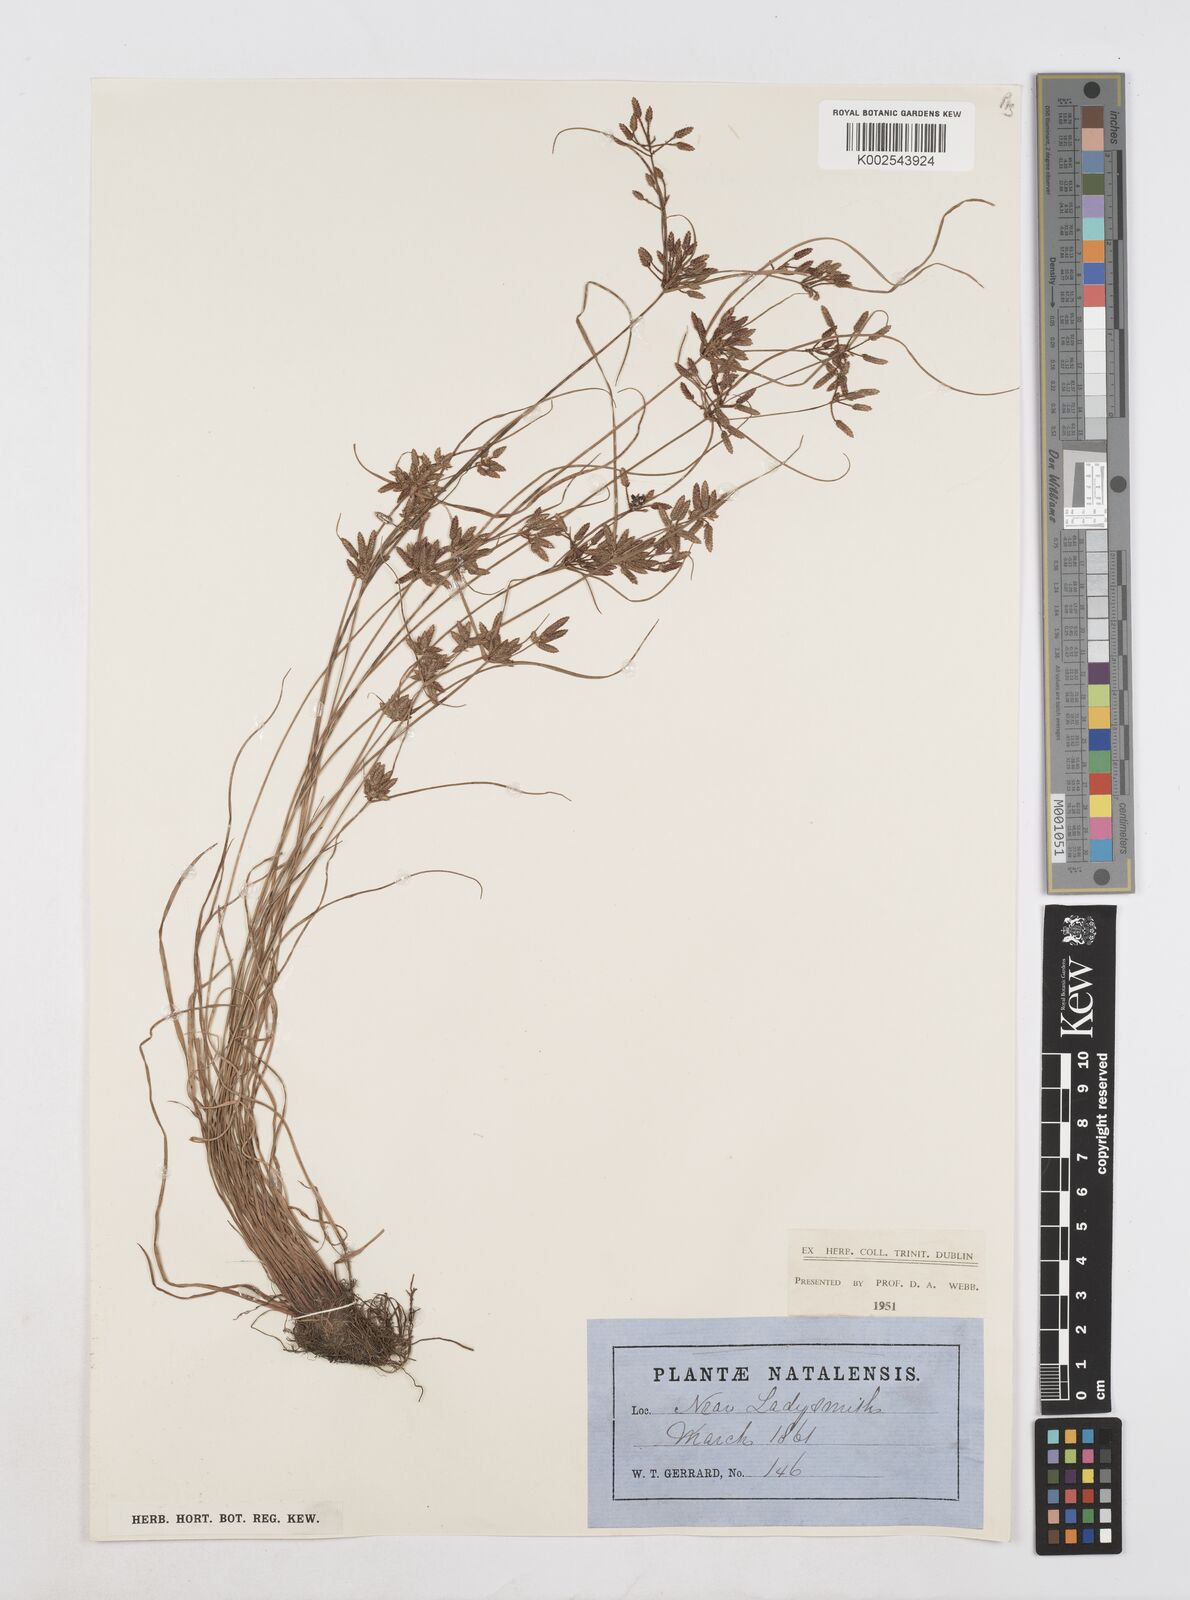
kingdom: Plantae
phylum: Tracheophyta
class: Liliopsida
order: Poales
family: Cyperaceae
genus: Cyperus
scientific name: Cyperus flavescens
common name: Yellow galingale
